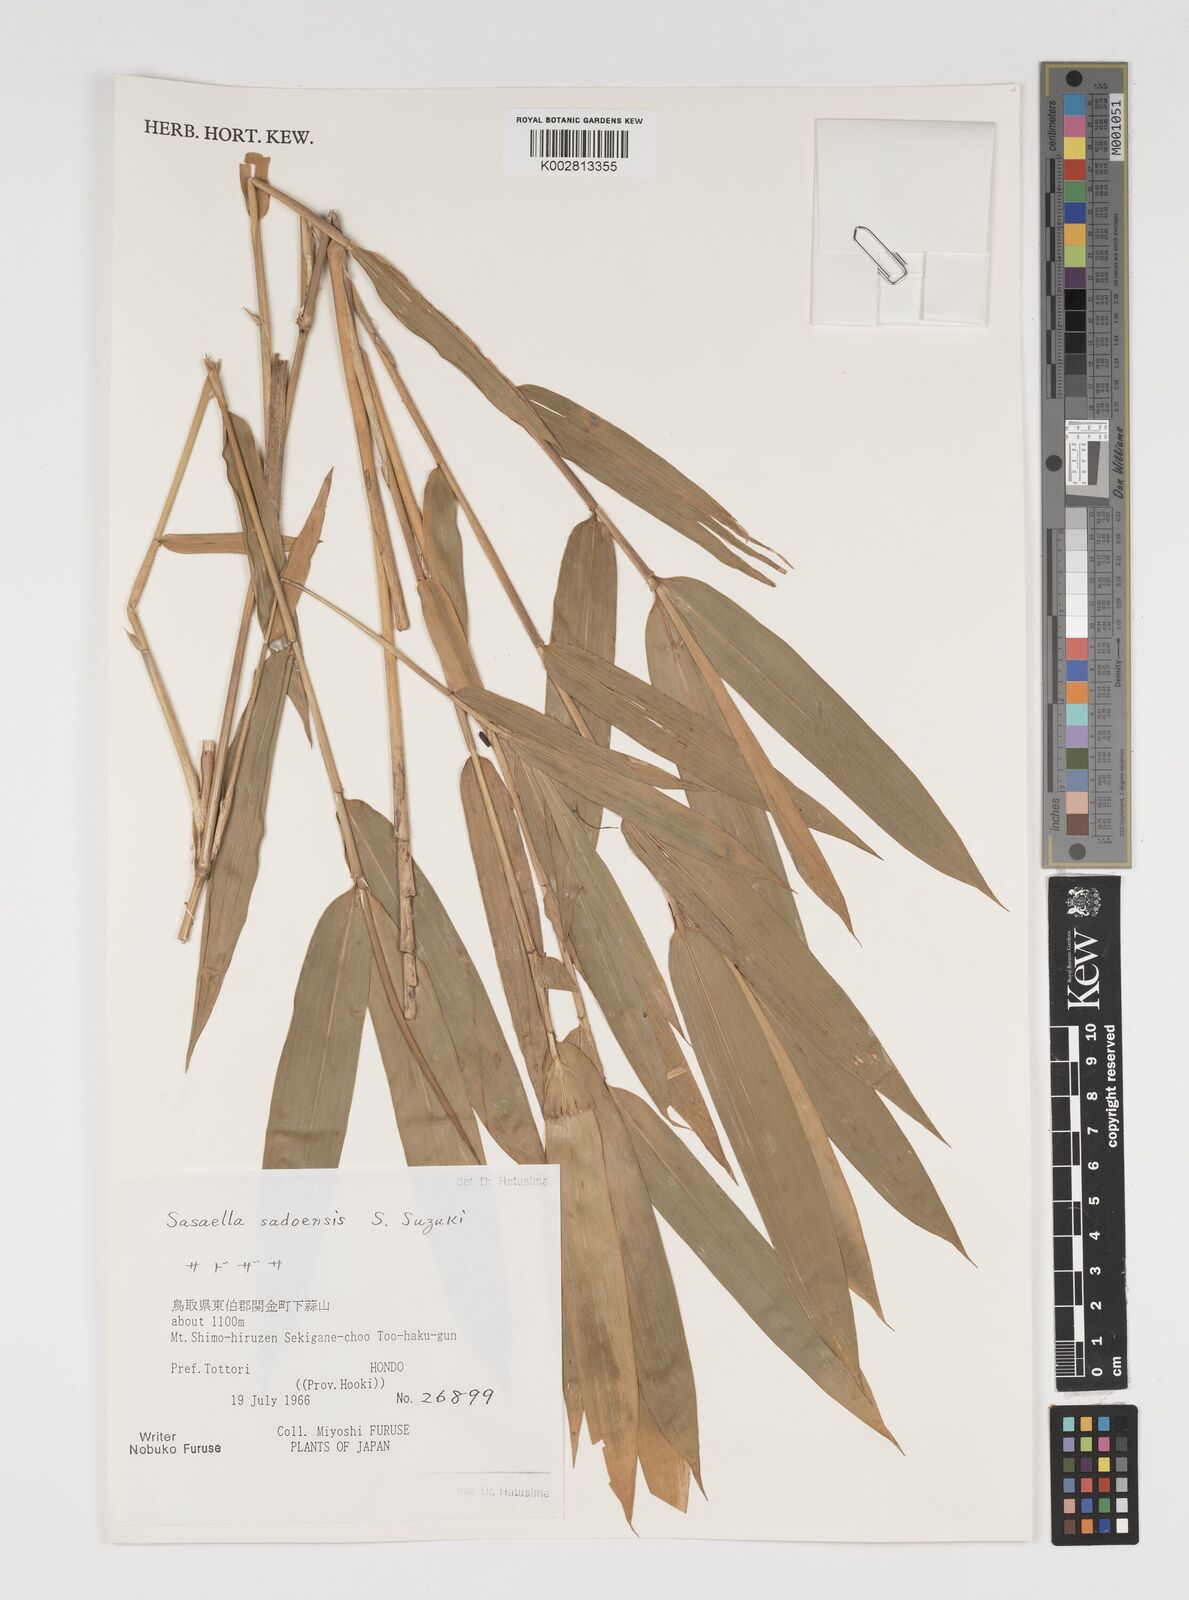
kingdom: Plantae
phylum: Tracheophyta
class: Liliopsida
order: Poales
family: Poaceae
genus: Sasa
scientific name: Sasa
